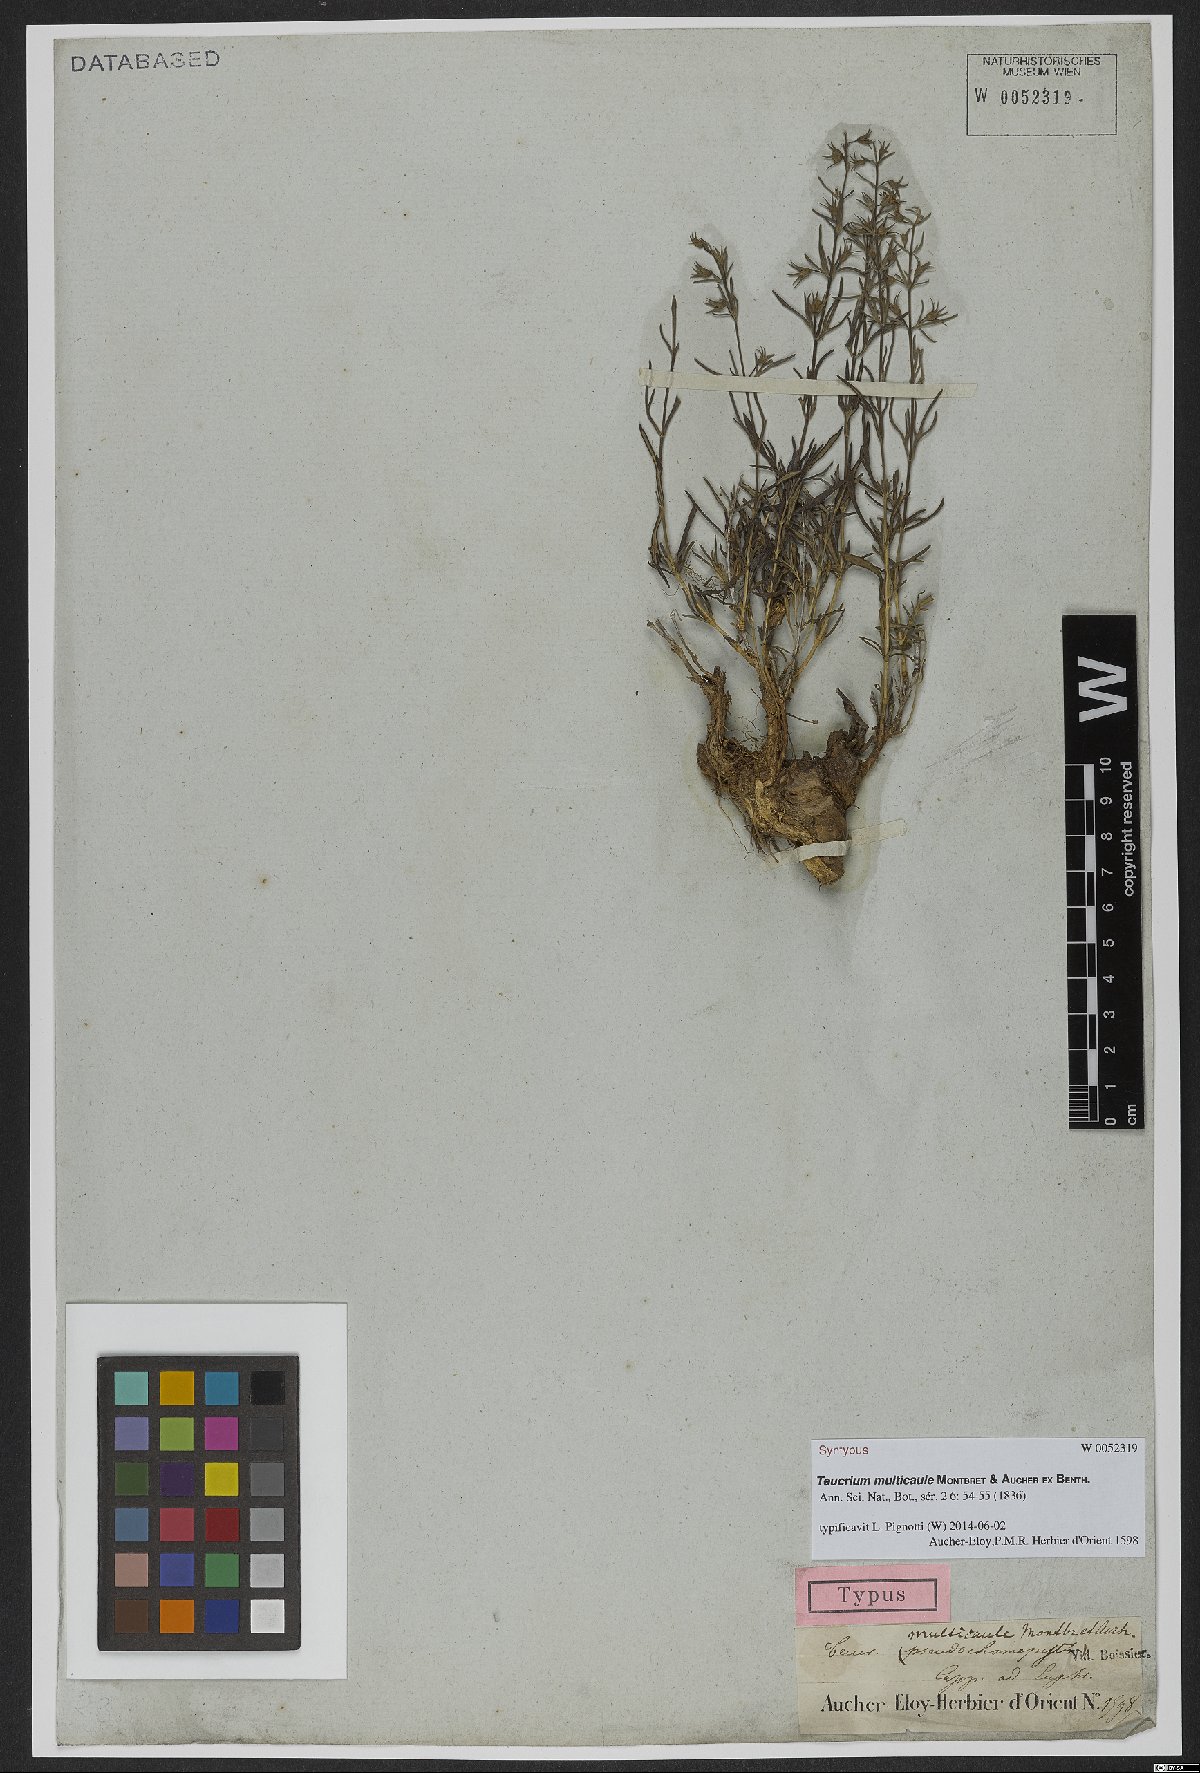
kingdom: Plantae
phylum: Tracheophyta
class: Magnoliopsida
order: Lamiales
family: Lamiaceae
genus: Teucrium
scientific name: Teucrium multicaule
